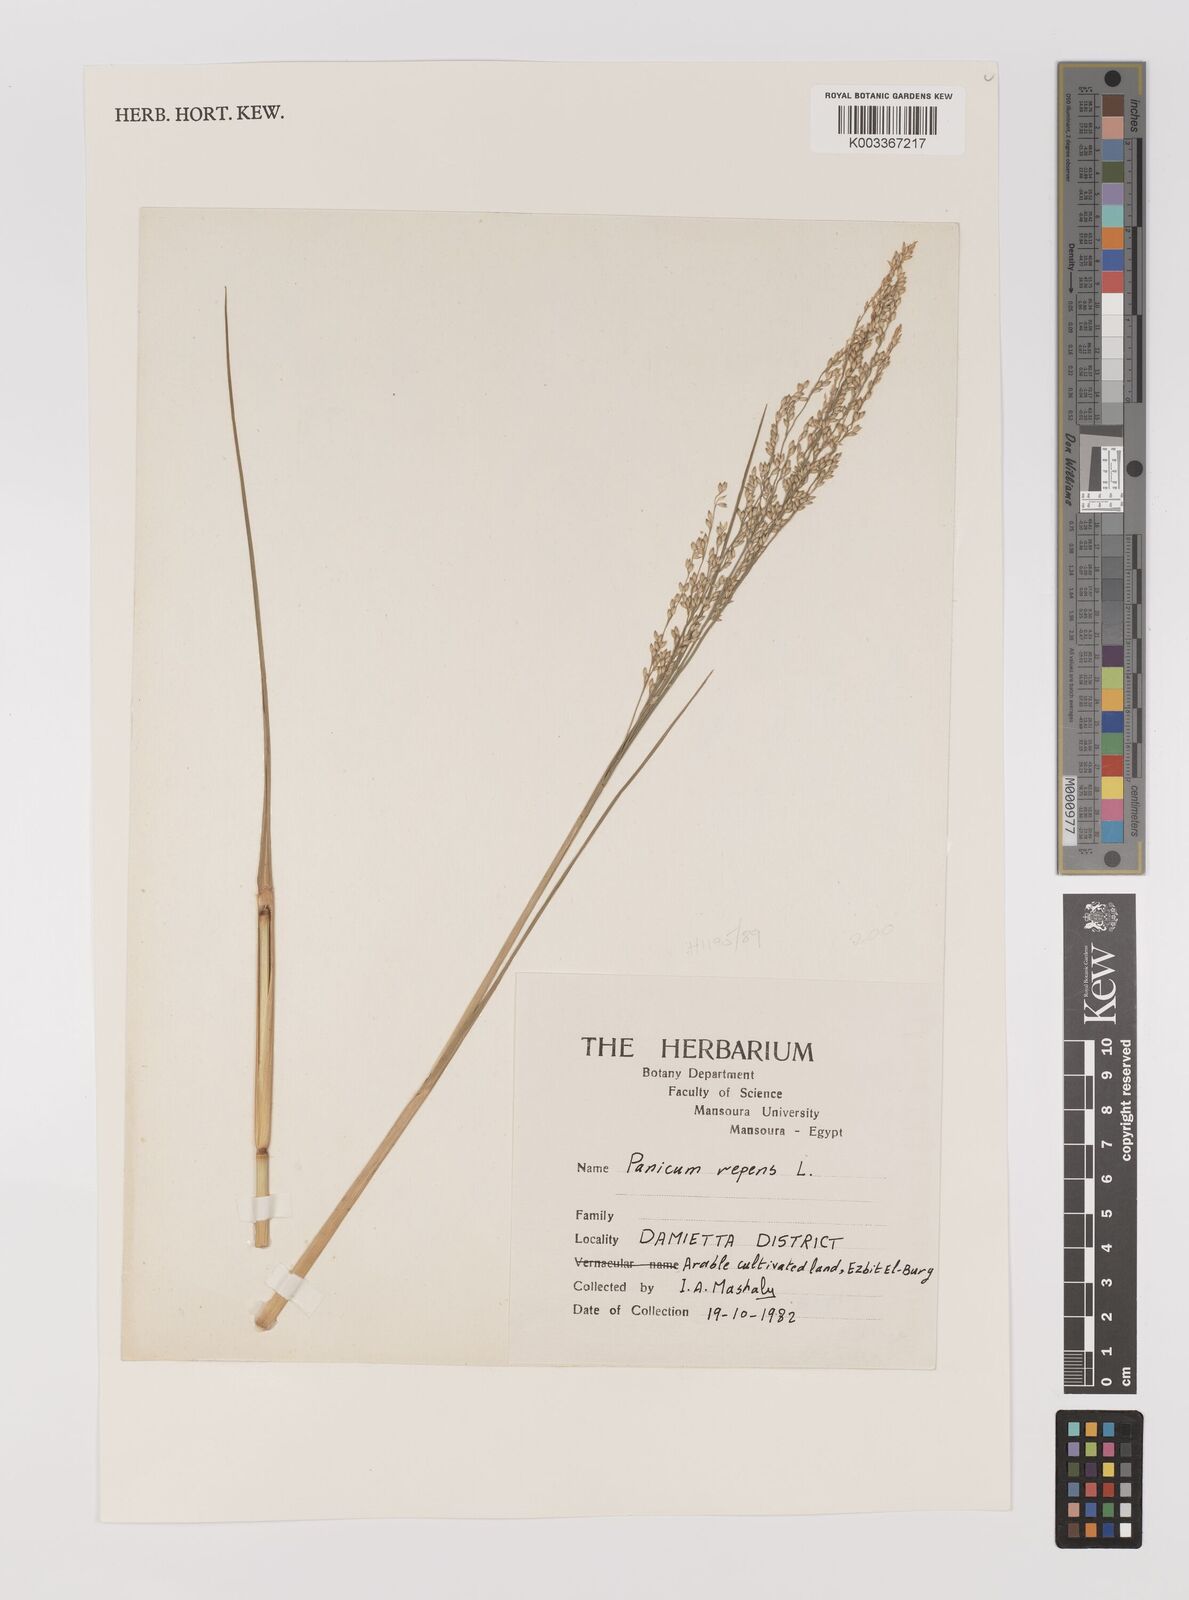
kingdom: Plantae
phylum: Tracheophyta
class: Liliopsida
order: Poales
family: Poaceae
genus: Panicum
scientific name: Panicum repens
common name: Torpedo grass
